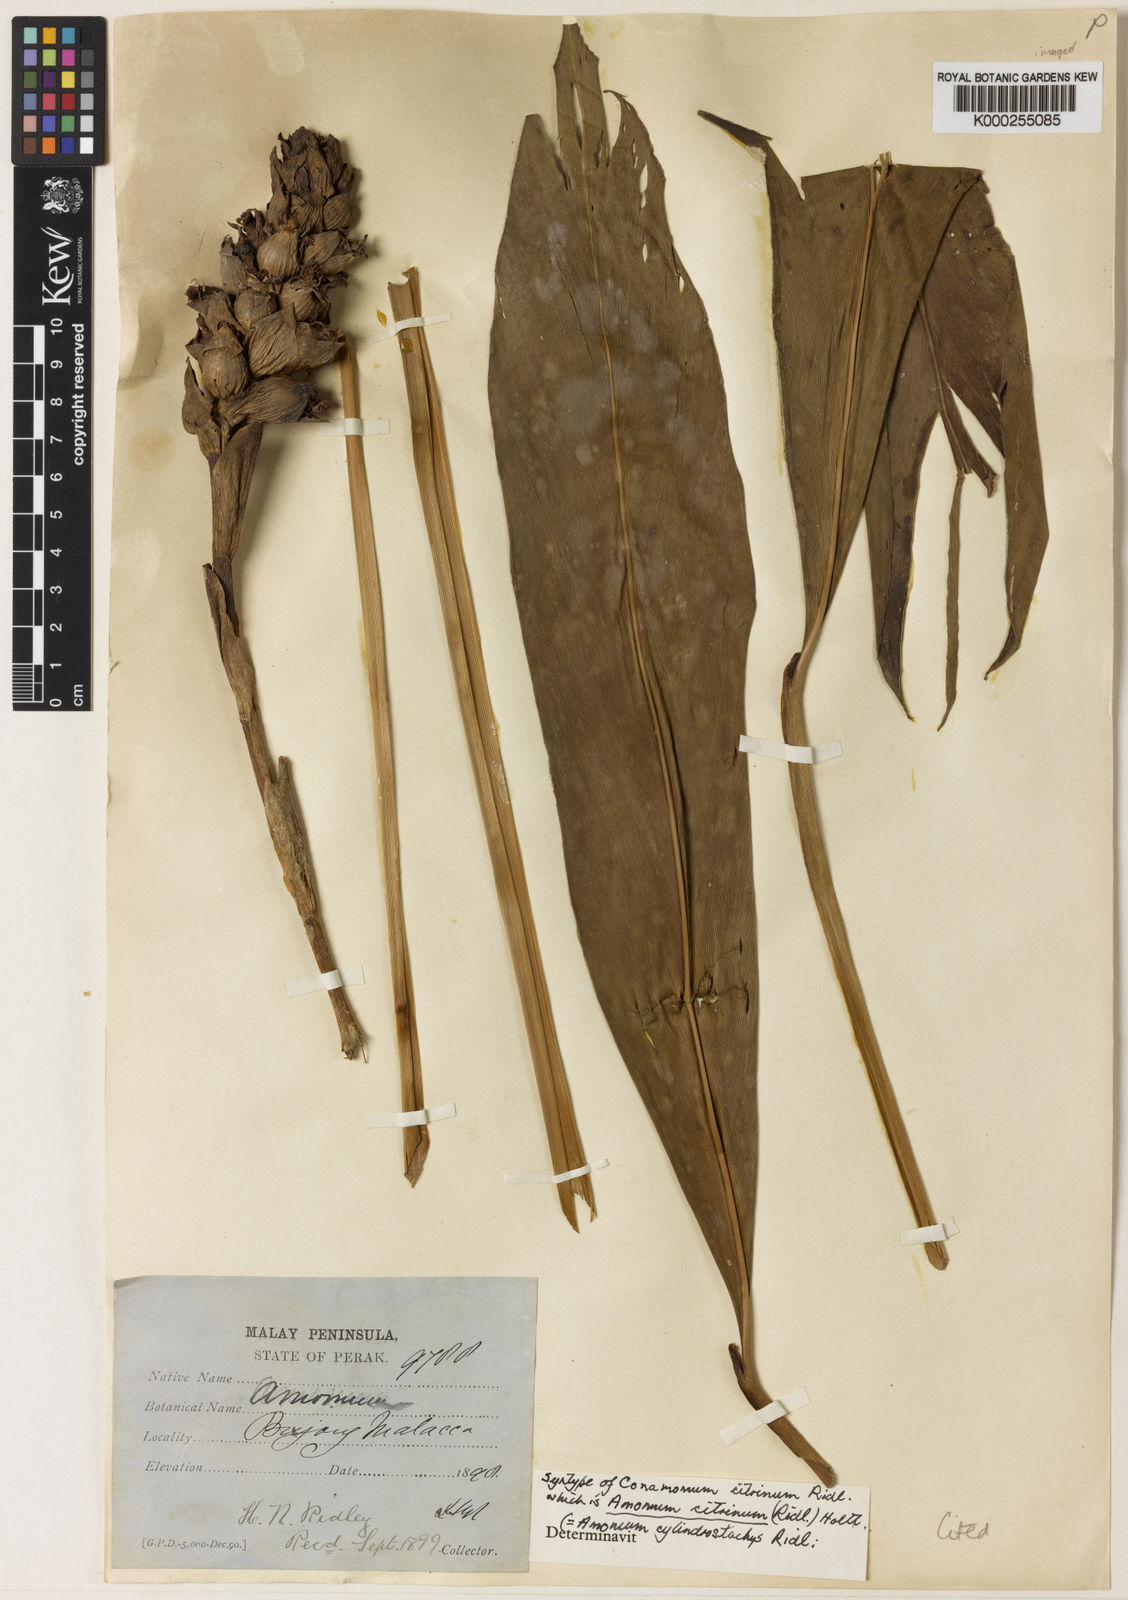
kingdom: Plantae
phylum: Tracheophyta
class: Liliopsida
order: Zingiberales
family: Zingiberaceae
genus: Conamomum
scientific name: Conamomum citrinum
